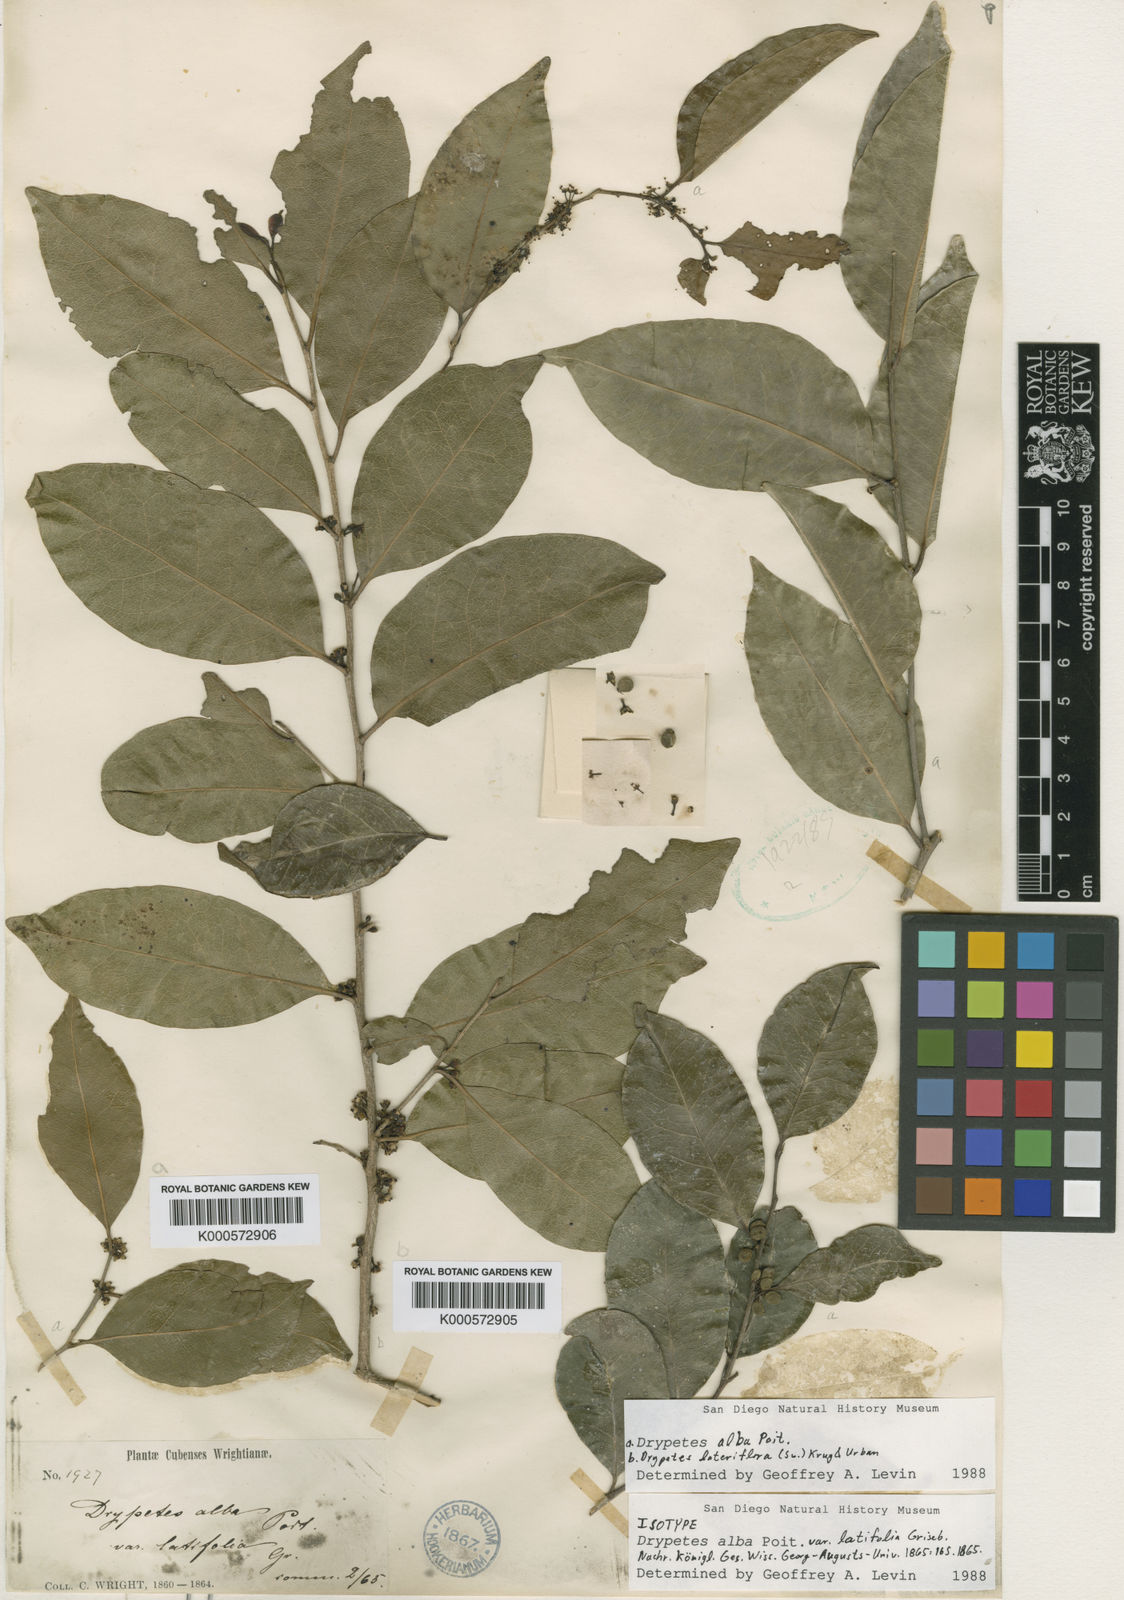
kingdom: Plantae
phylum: Tracheophyta
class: Magnoliopsida
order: Malpighiales
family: Putranjivaceae
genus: Drypetes
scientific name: Drypetes alba
